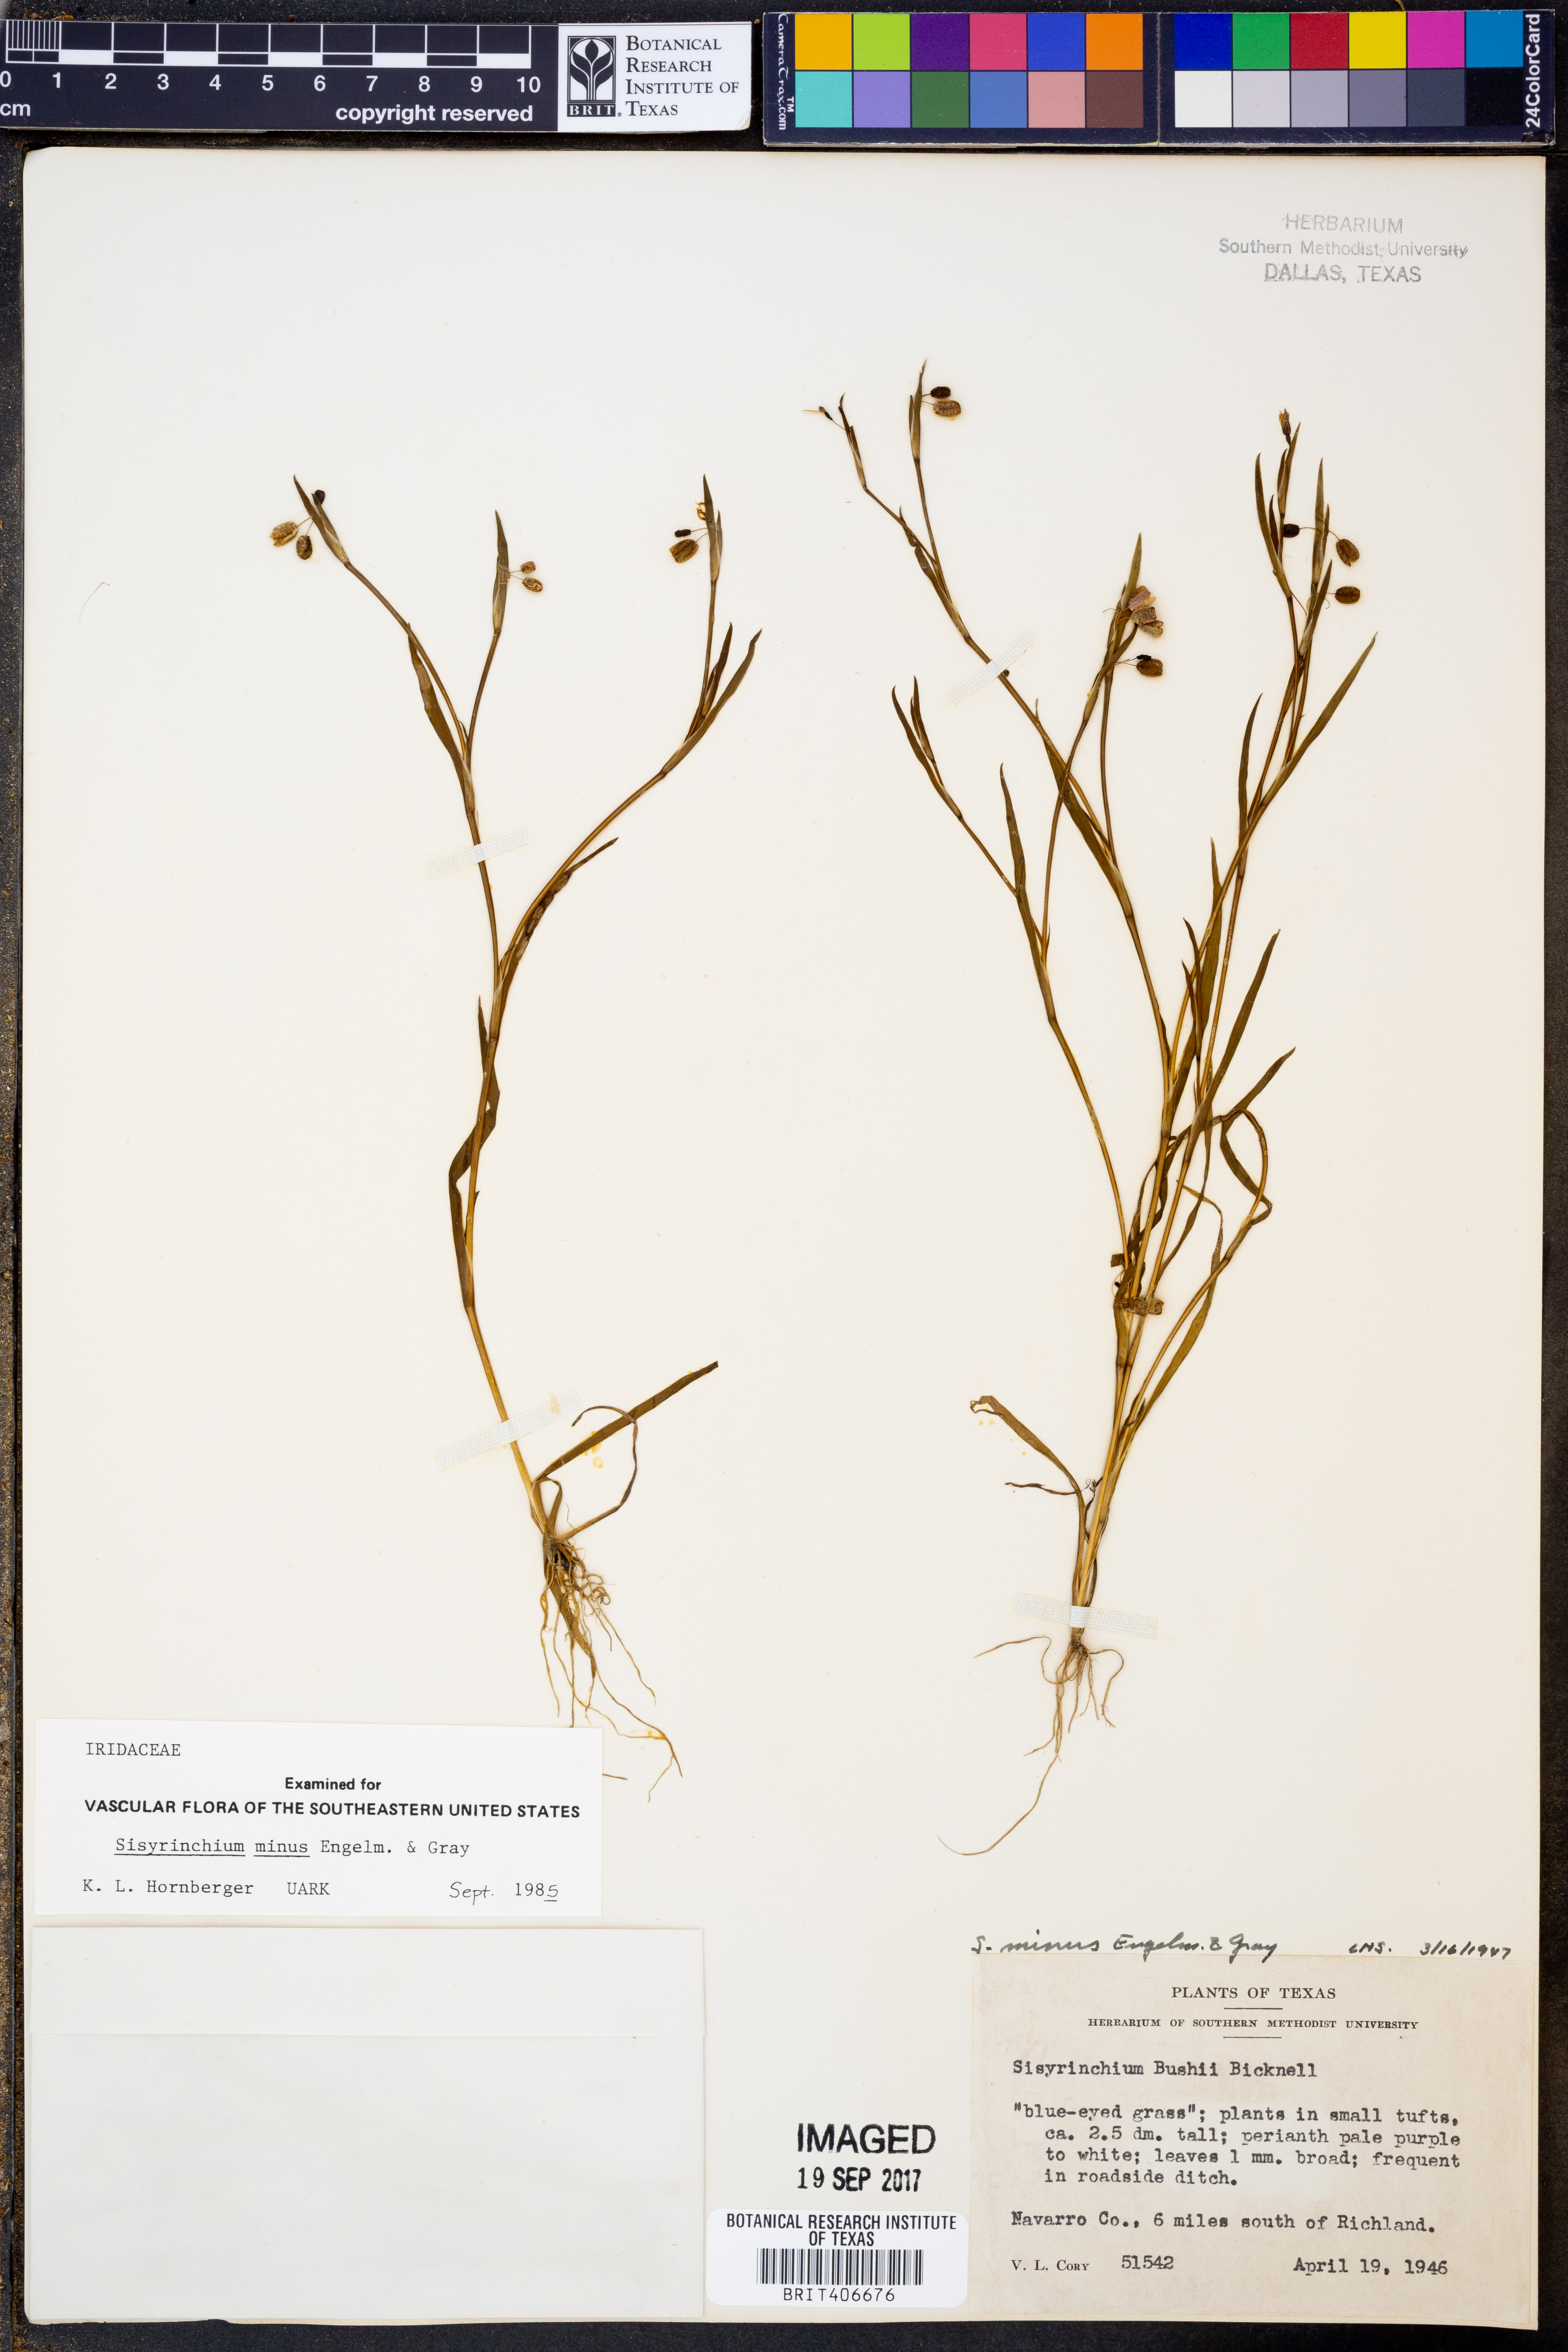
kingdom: Plantae
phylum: Tracheophyta
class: Liliopsida
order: Asparagales
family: Iridaceae
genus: Sisyrinchium
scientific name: Sisyrinchium minus
